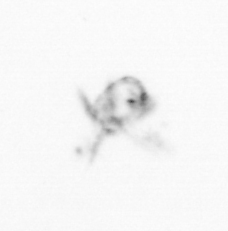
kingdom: Animalia
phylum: Arthropoda
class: Copepoda
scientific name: Copepoda
